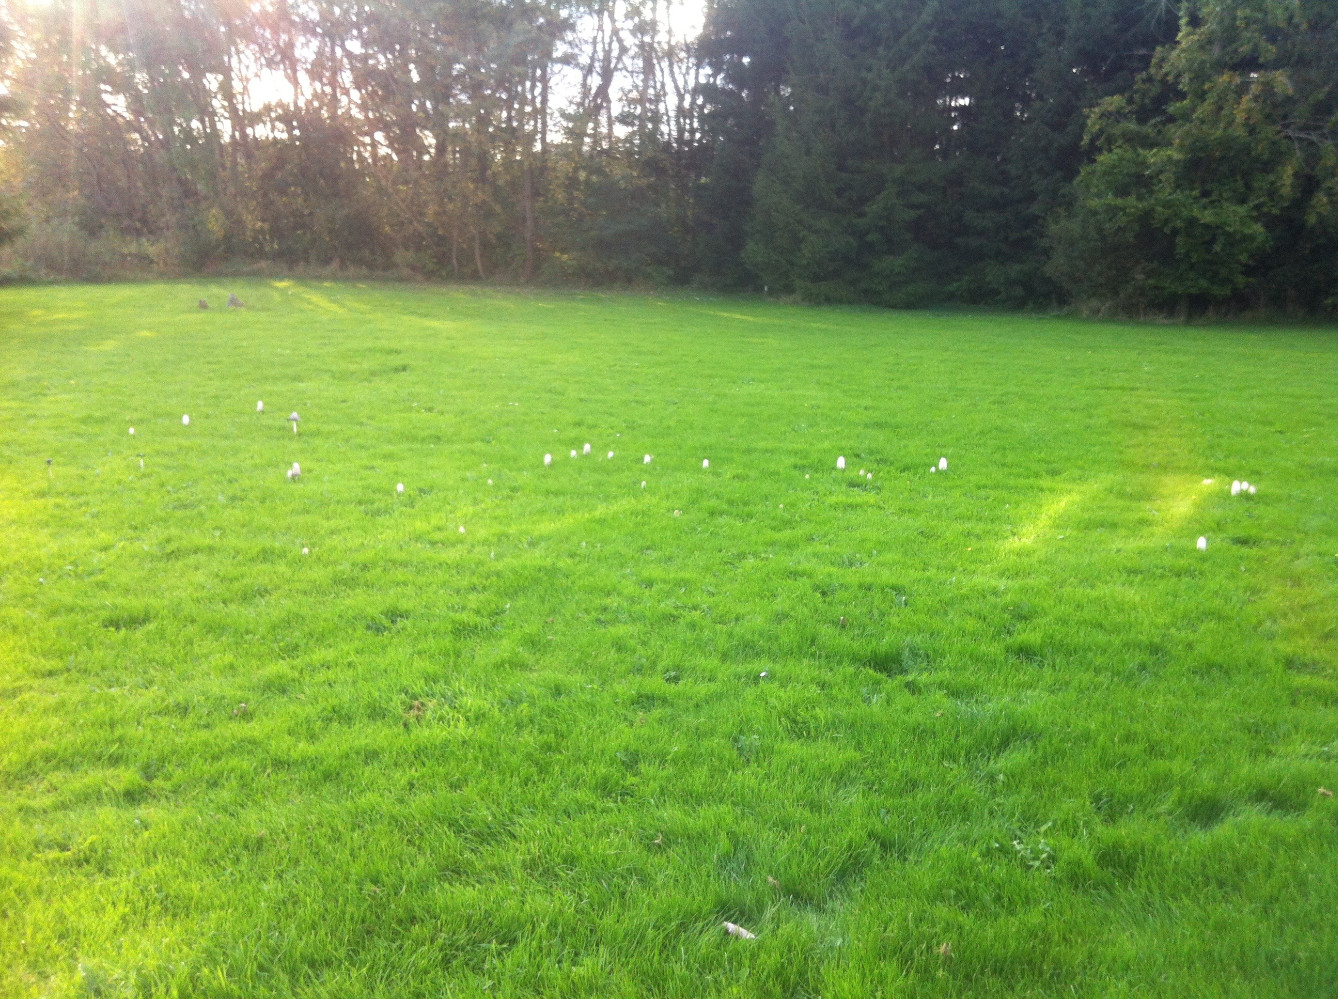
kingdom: Fungi
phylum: Basidiomycota
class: Agaricomycetes
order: Agaricales
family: Agaricaceae
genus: Coprinus
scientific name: Coprinus comatus
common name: stor parykhat
